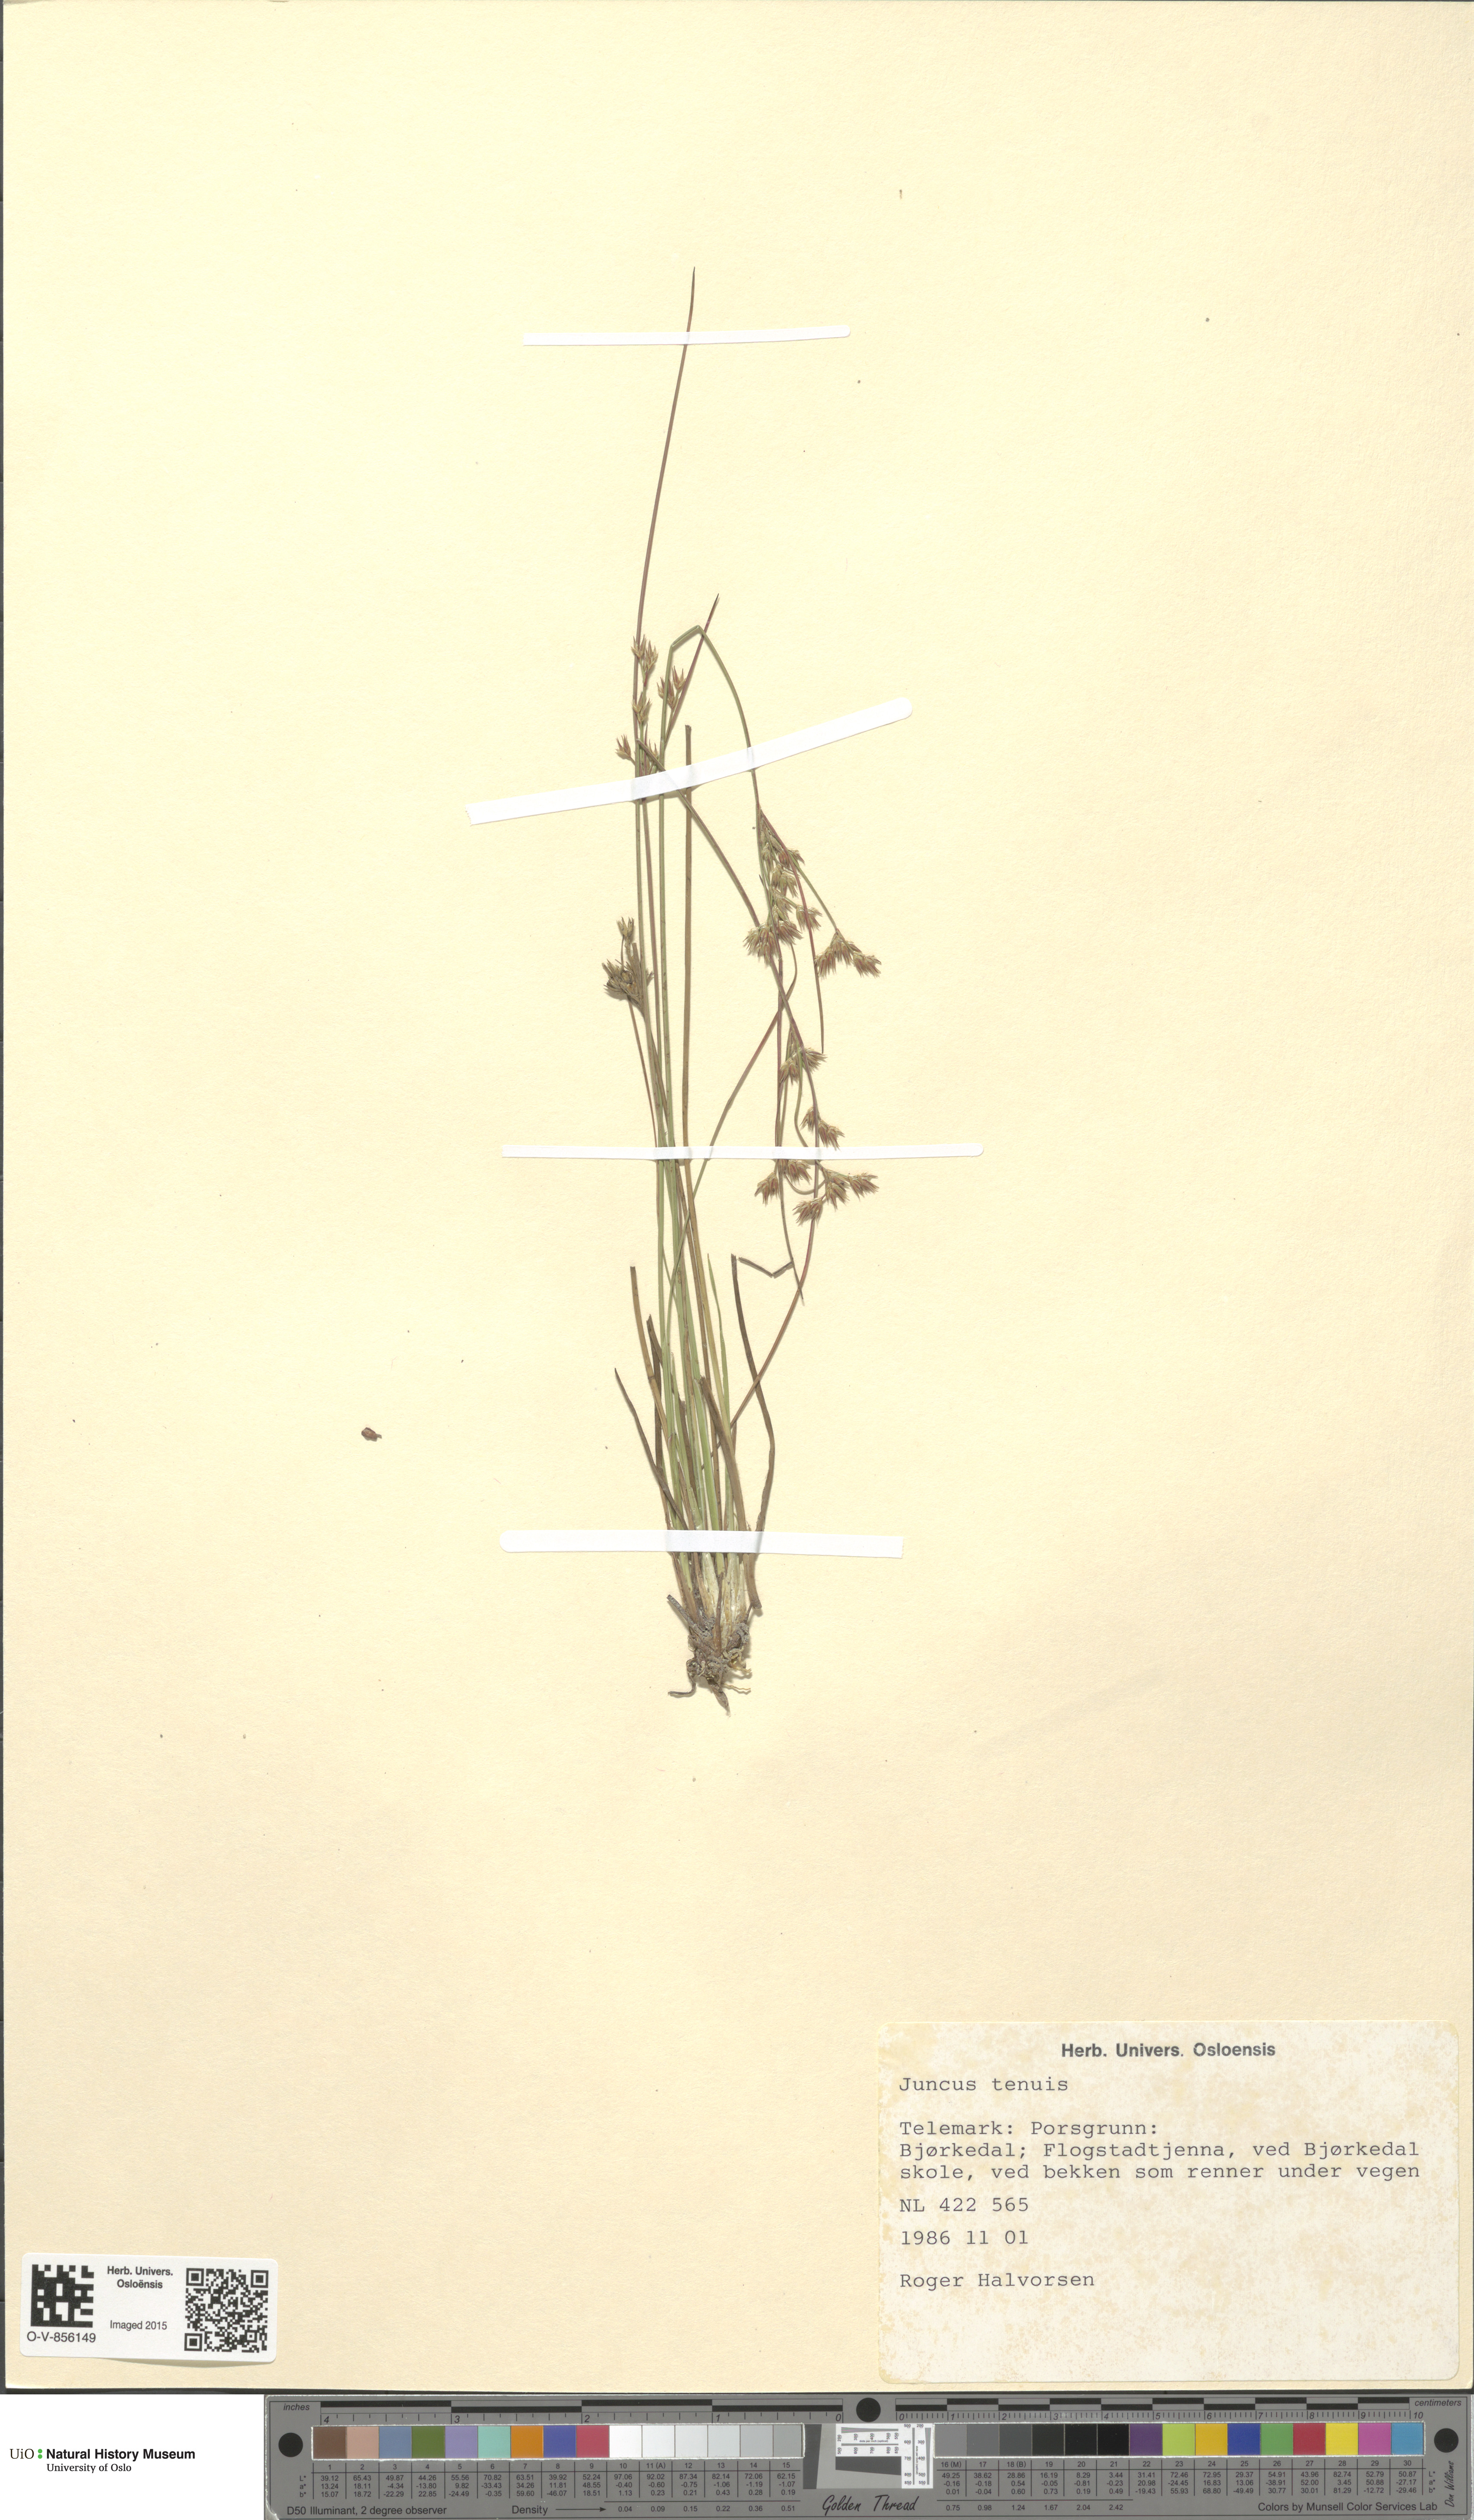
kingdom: Plantae
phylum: Tracheophyta
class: Liliopsida
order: Poales
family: Juncaceae
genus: Juncus
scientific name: Juncus tenuis
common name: Slender rush
